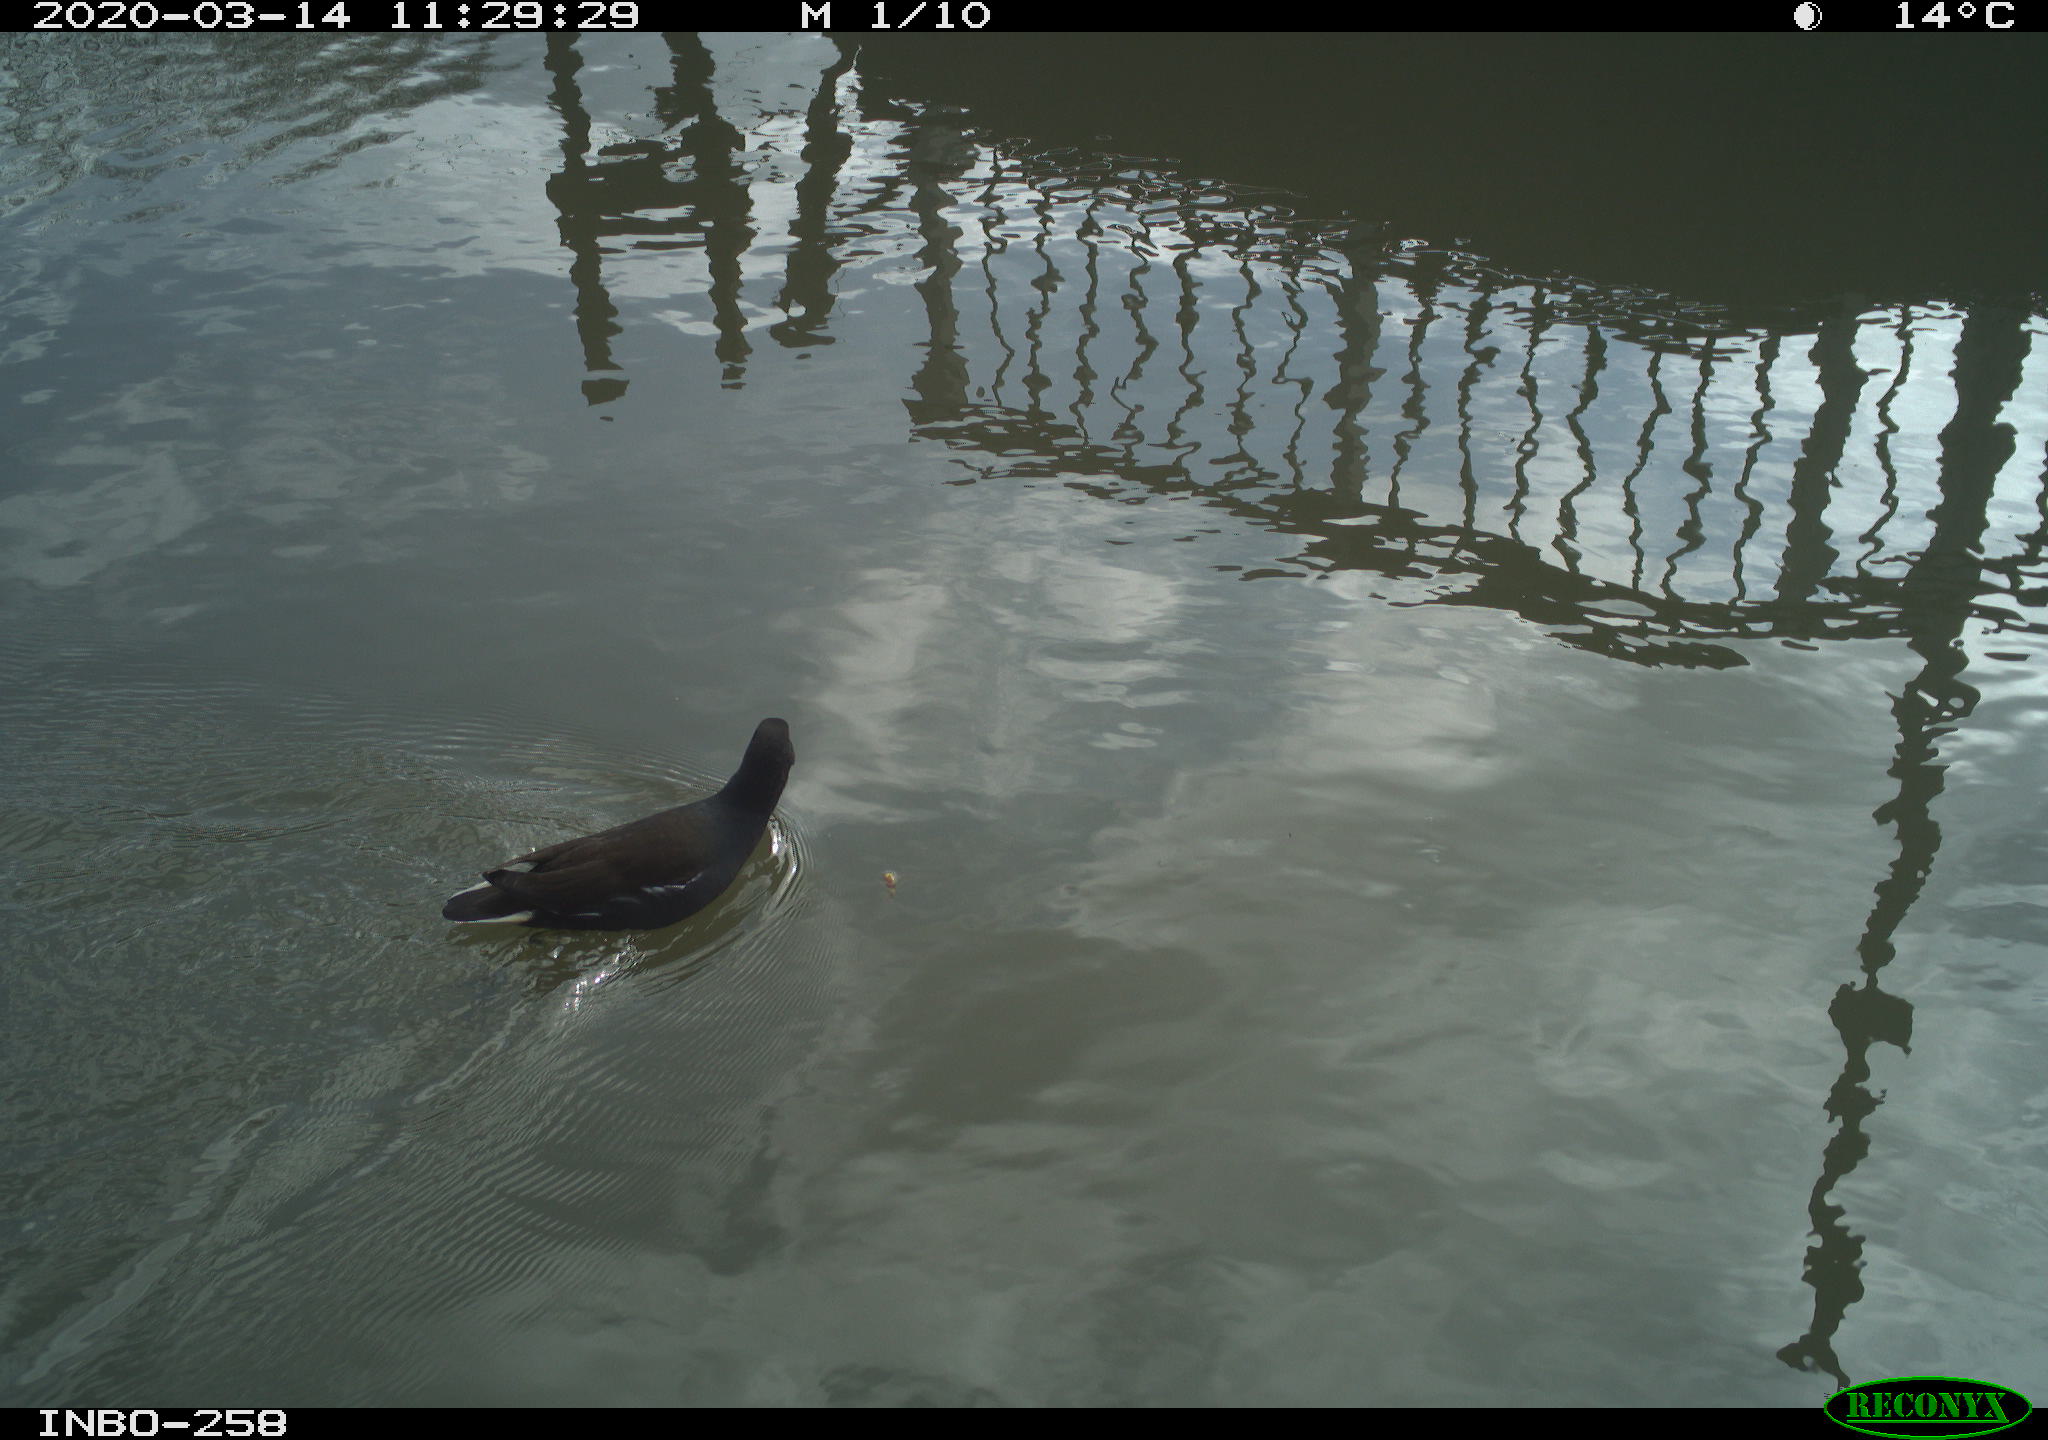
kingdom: Animalia
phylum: Chordata
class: Aves
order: Gruiformes
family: Rallidae
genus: Gallinula
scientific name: Gallinula chloropus
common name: Common moorhen
